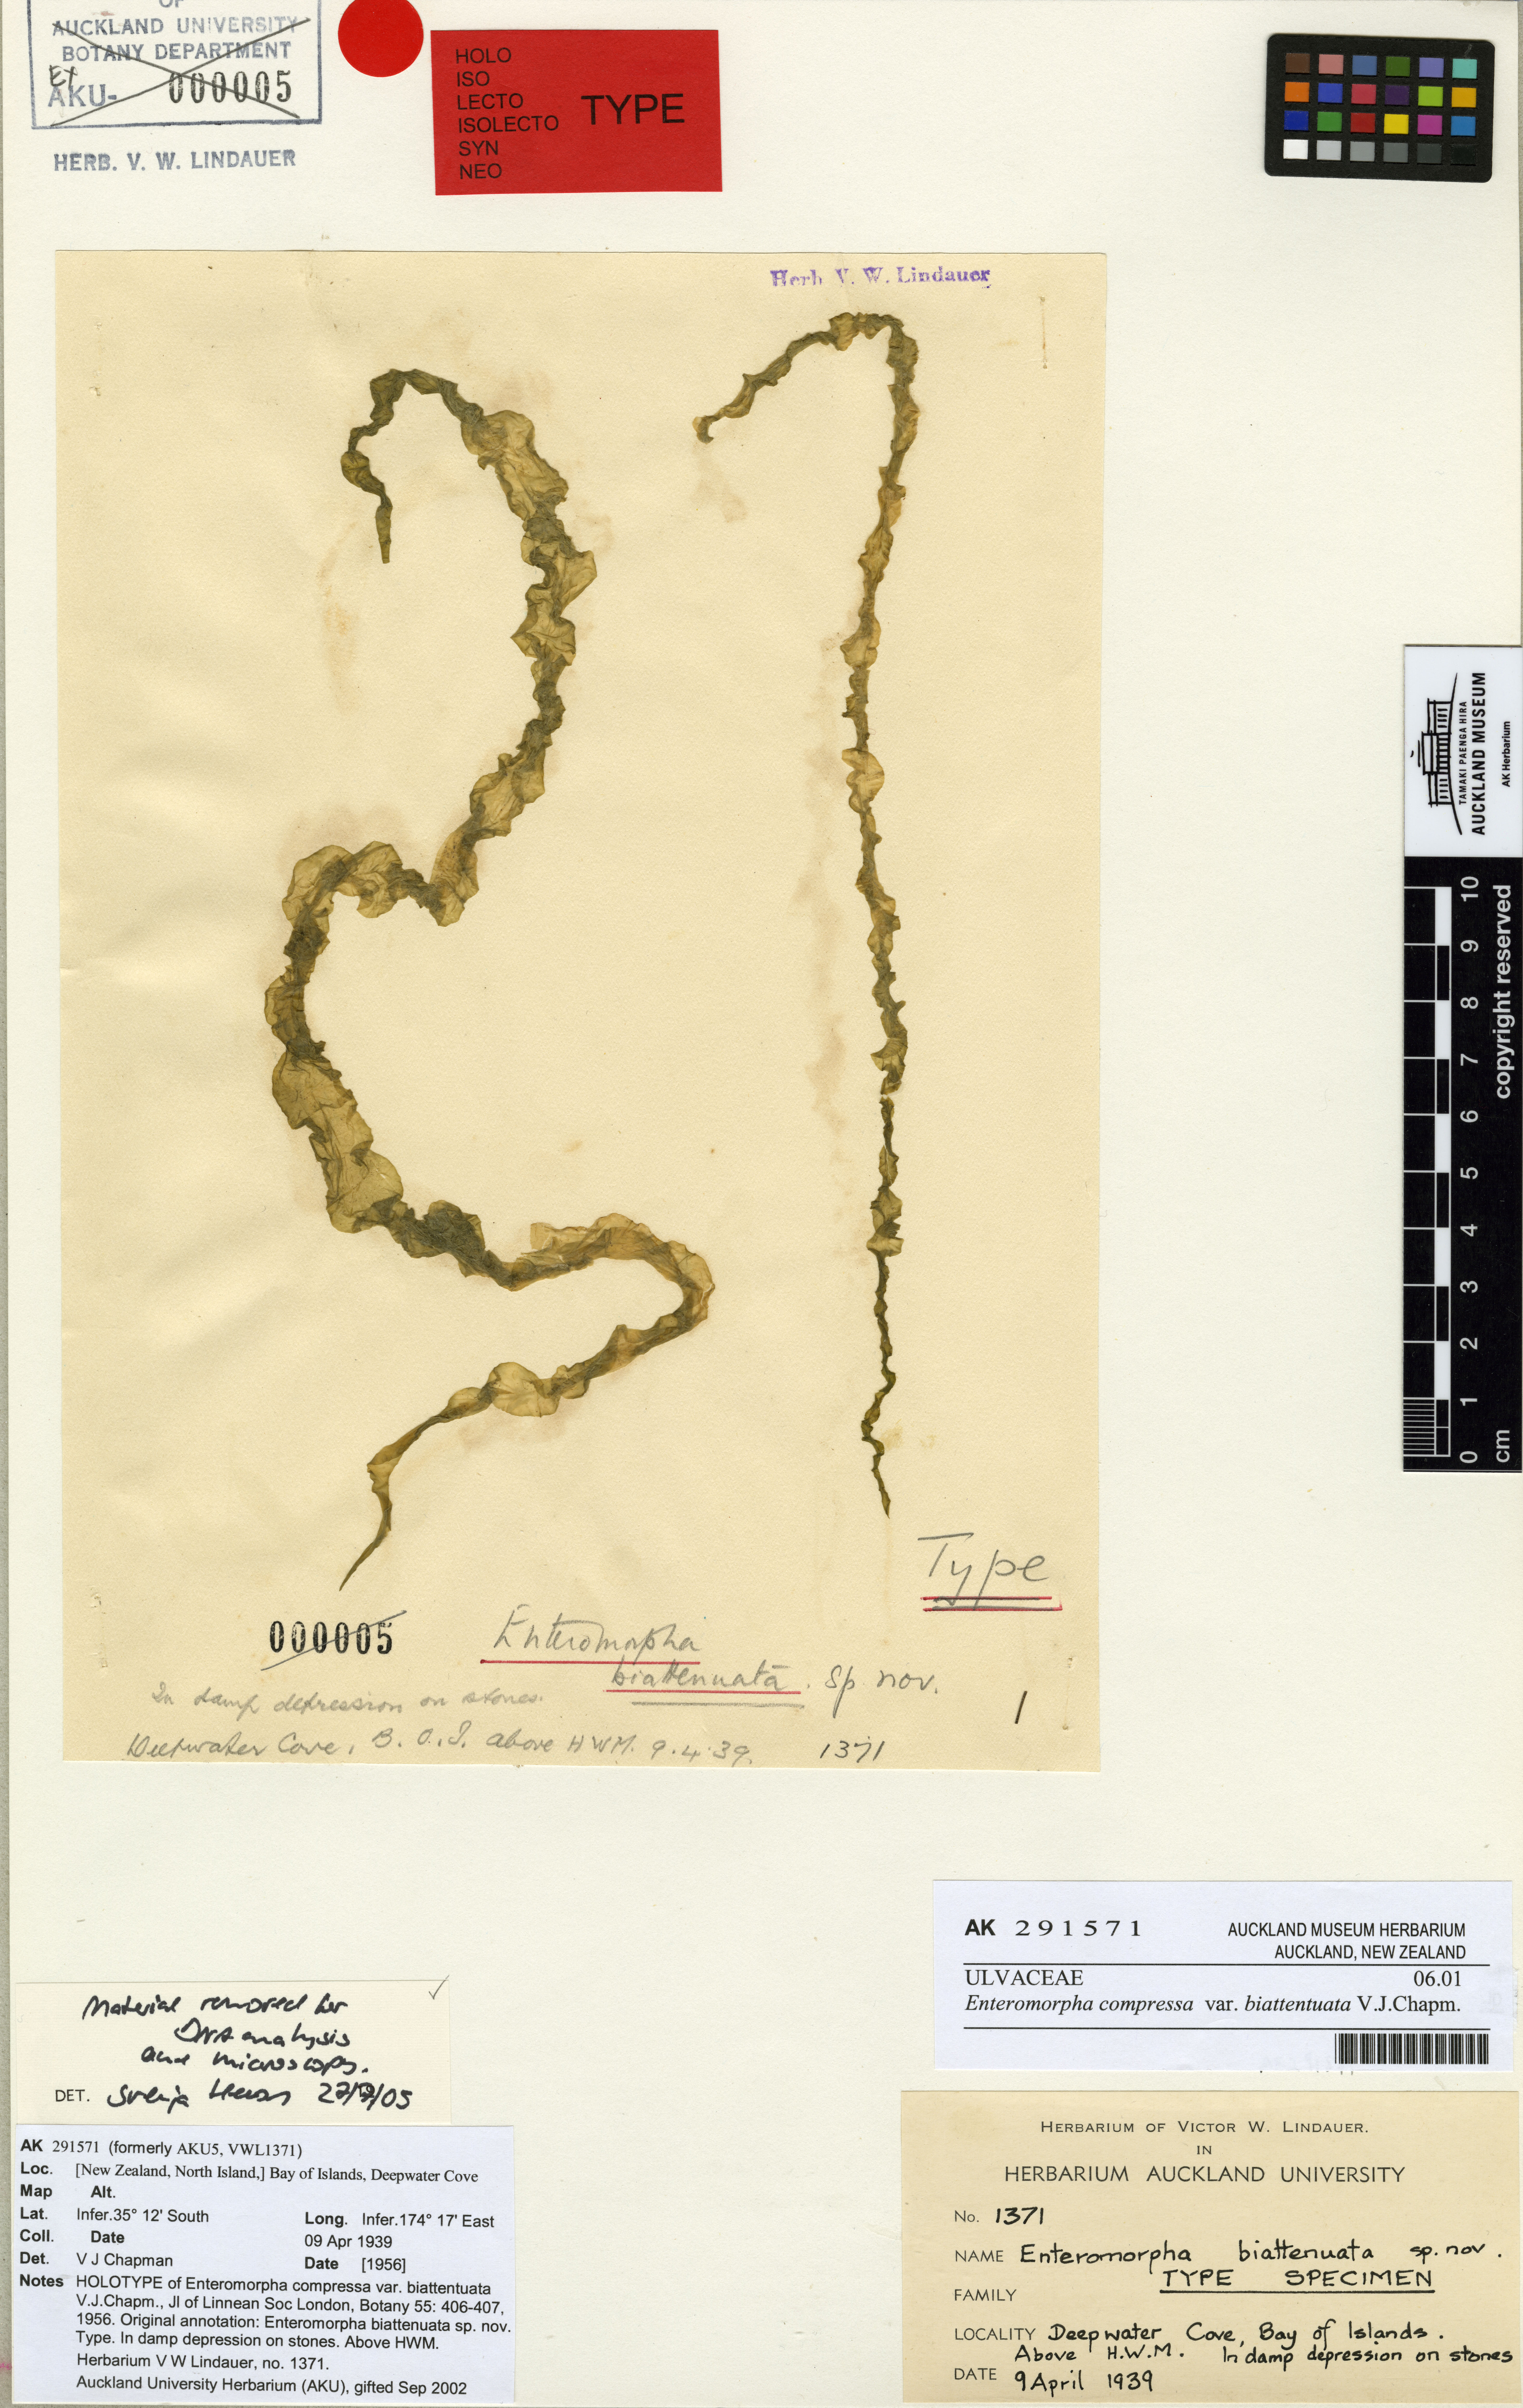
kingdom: Plantae
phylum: Chlorophyta
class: Ulvophyceae
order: Ulvales
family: Ulvaceae
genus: Ulva
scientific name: Ulva compressa
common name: Thread weed
